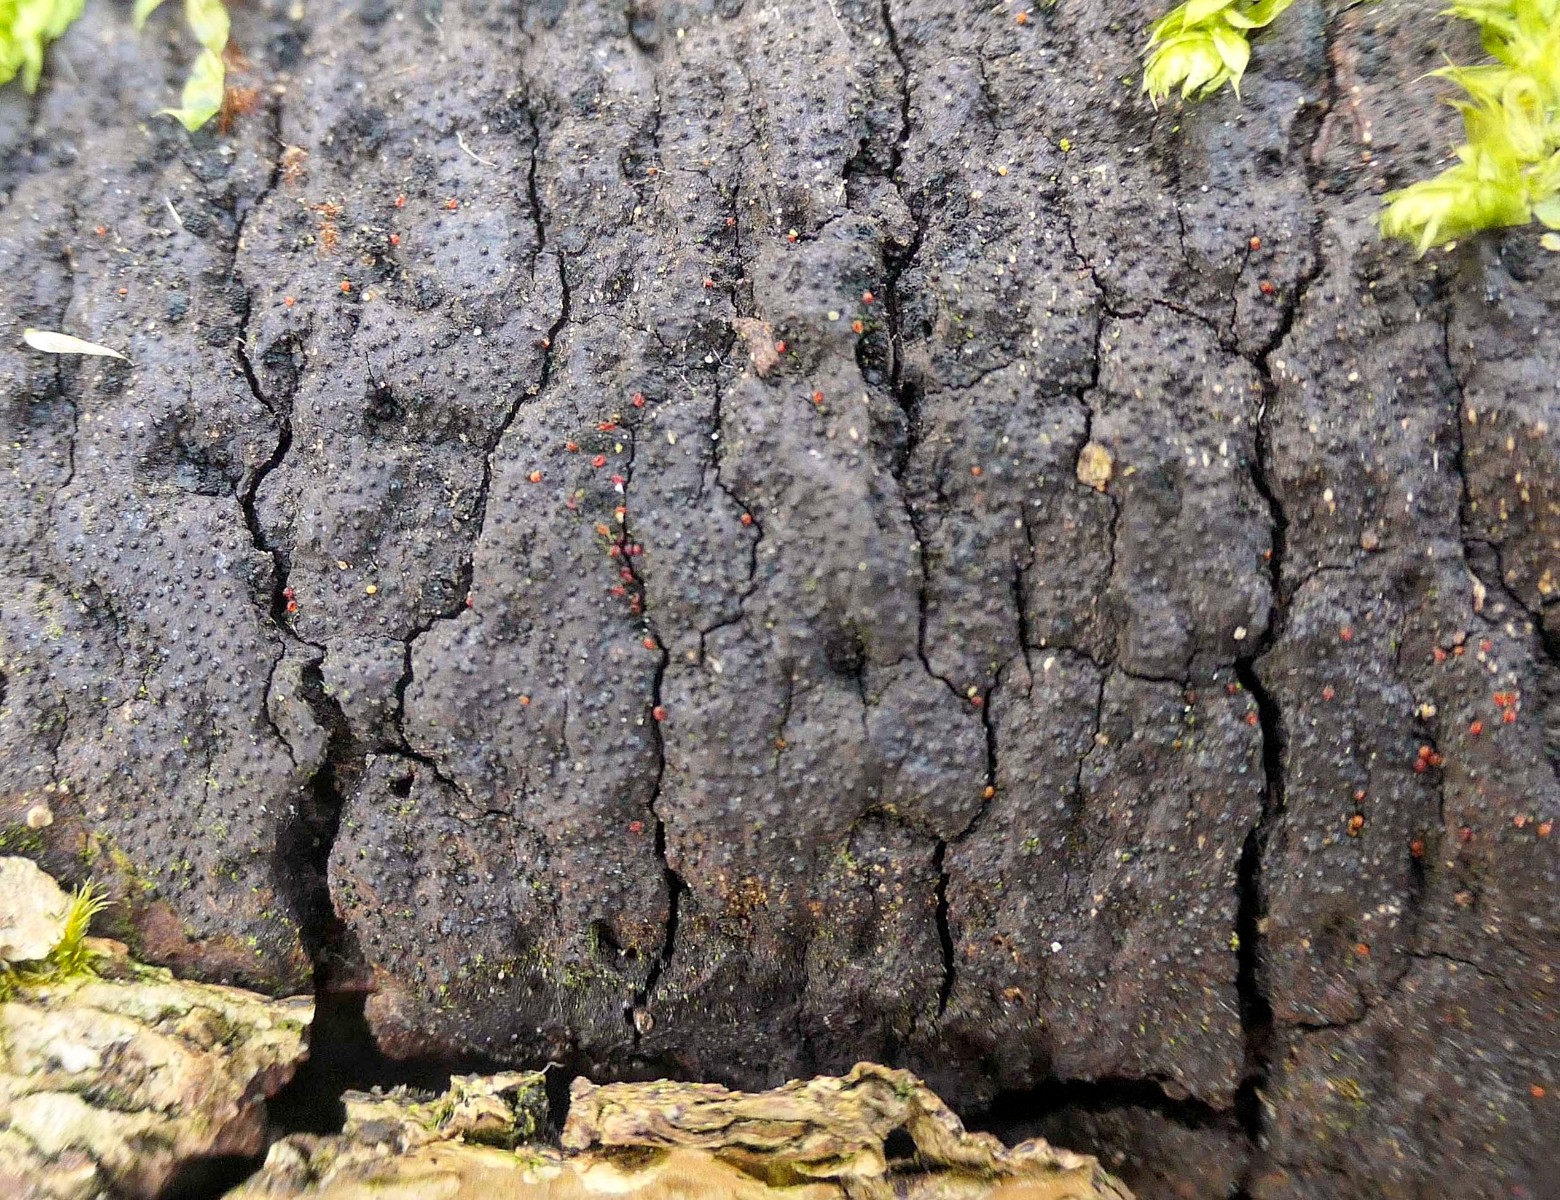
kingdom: Fungi
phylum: Ascomycota
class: Sordariomycetes
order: Hypocreales
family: Nectriaceae
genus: Dialonectria
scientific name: Dialonectria episphaeria
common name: kulskorpe-cinnobersvamp
